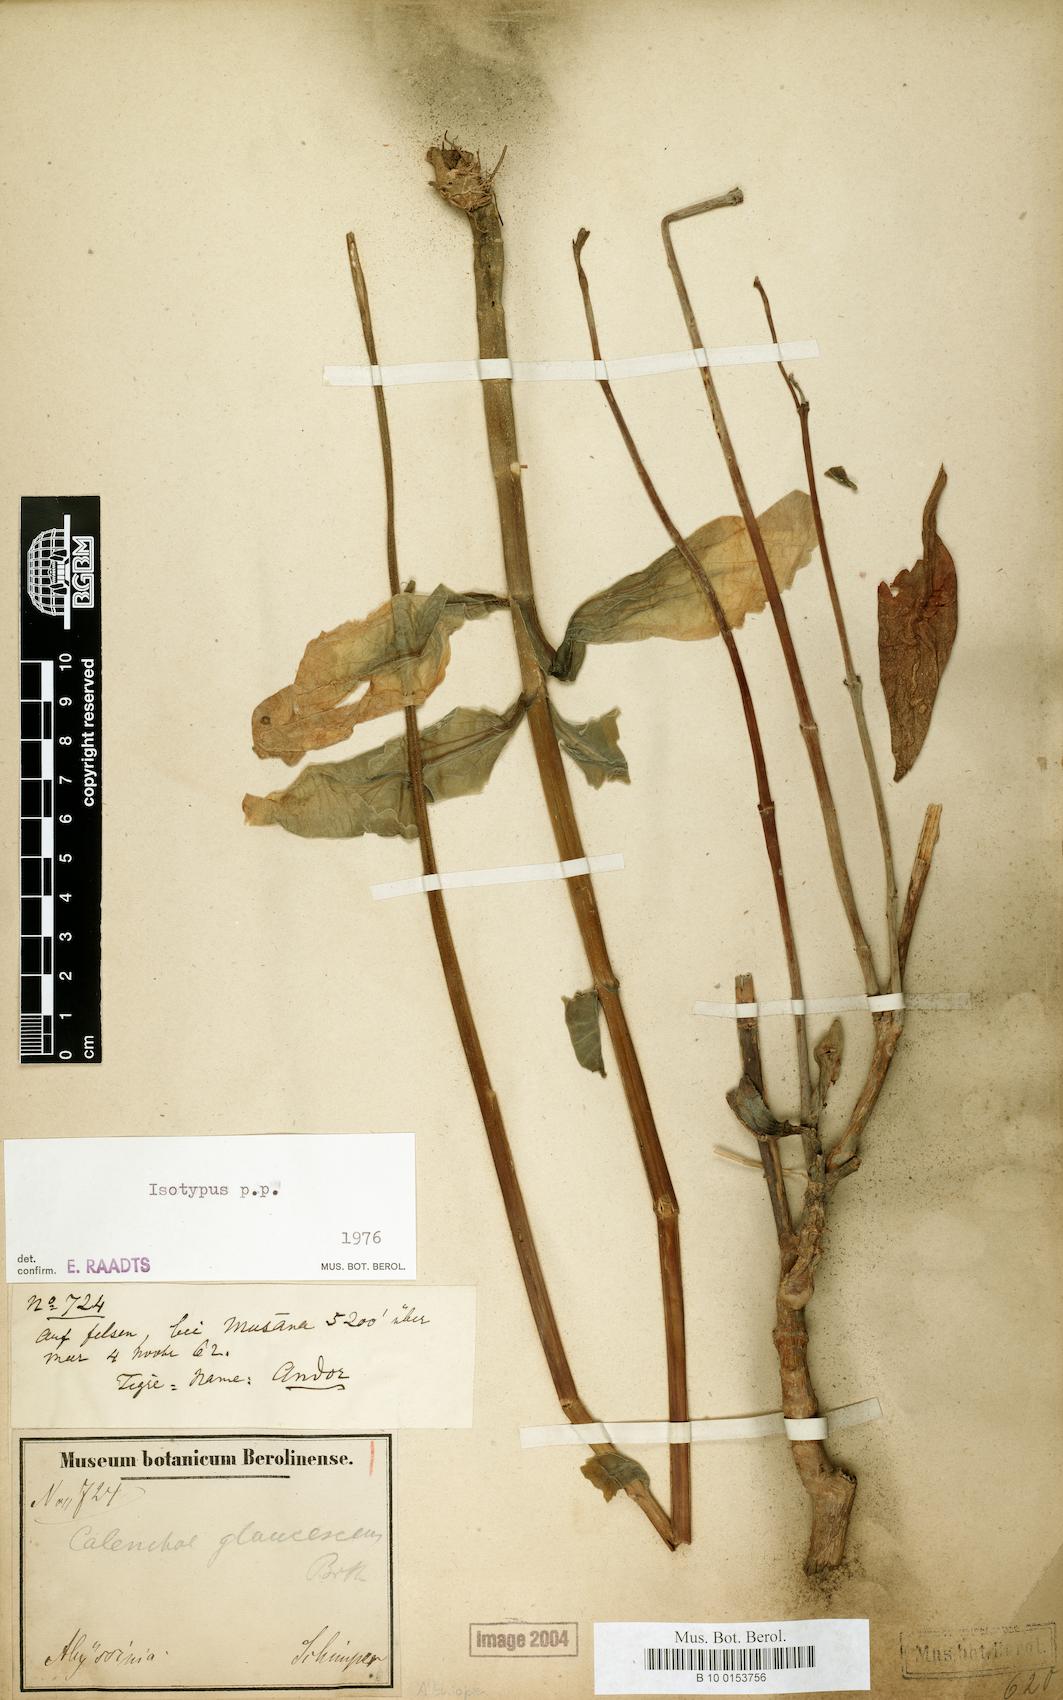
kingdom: Plantae
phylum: Tracheophyta
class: Magnoliopsida
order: Saxifragales
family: Crassulaceae
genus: Kalanchoe
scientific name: Kalanchoe glaucescens
